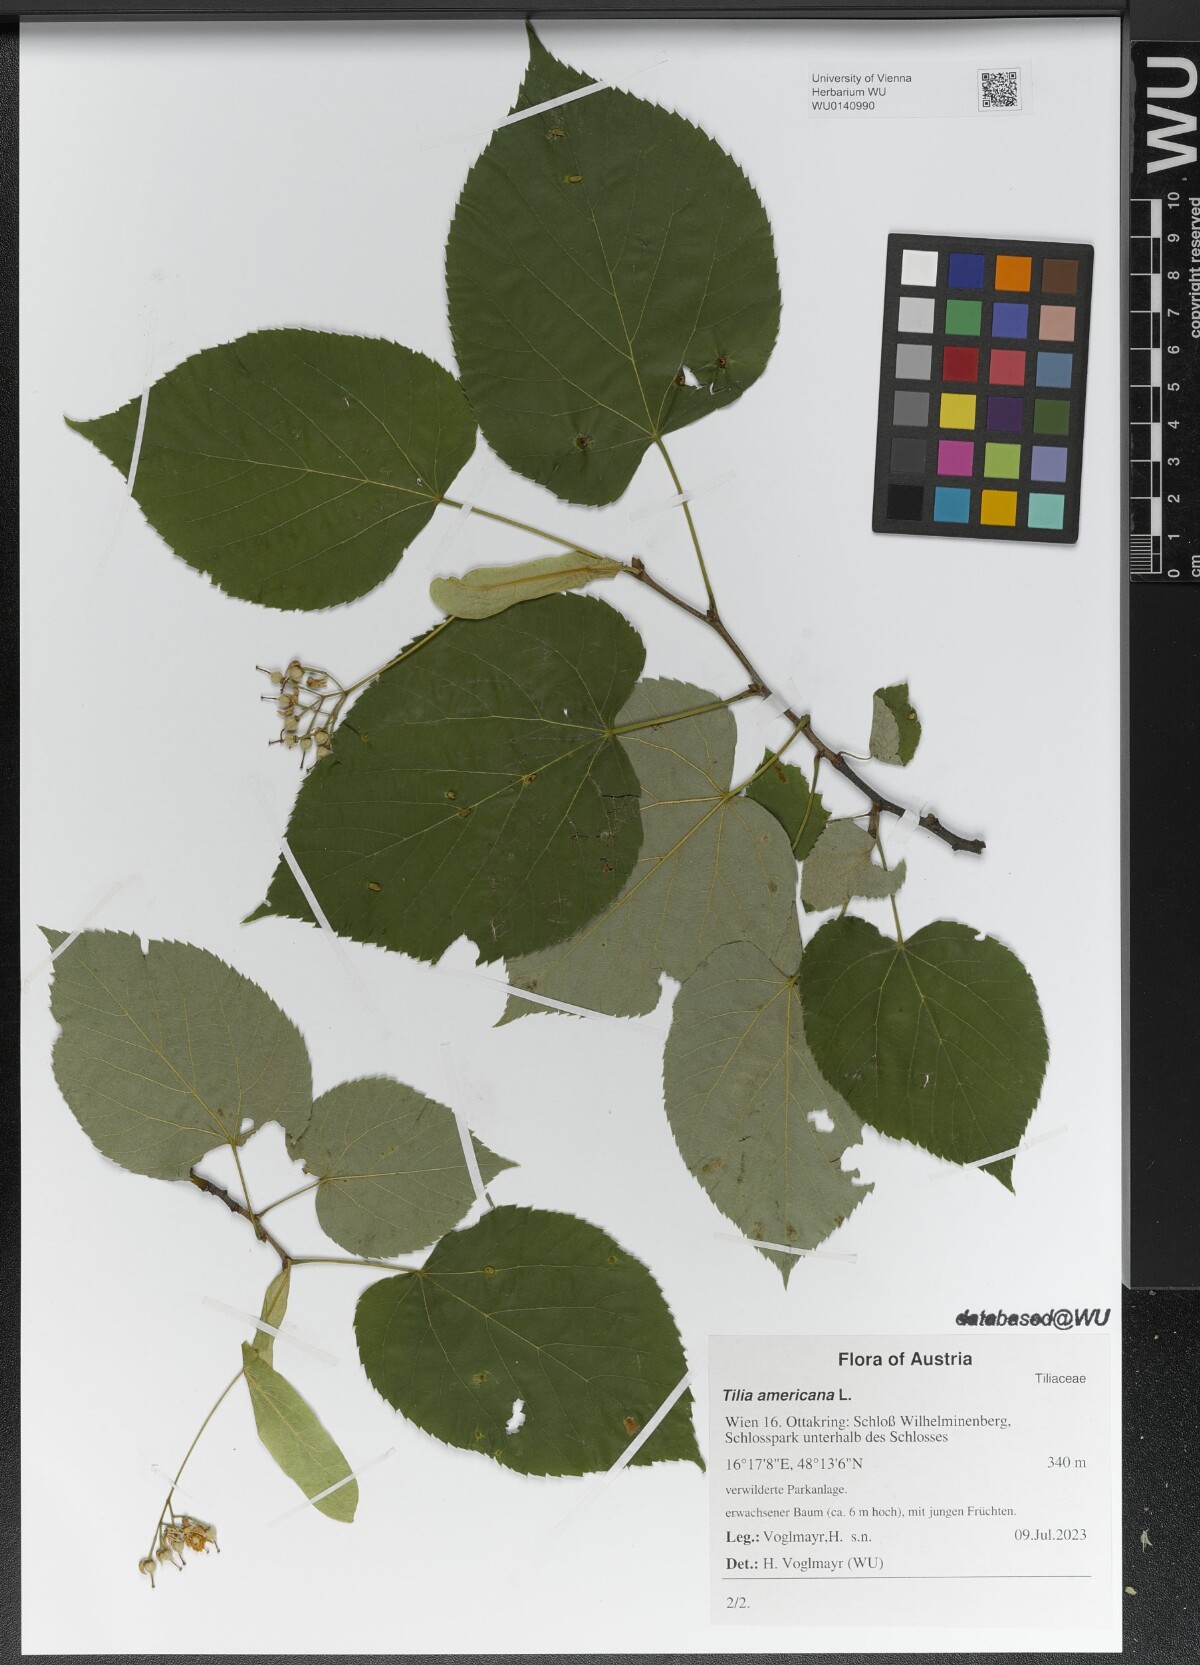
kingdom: Plantae
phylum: Tracheophyta
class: Magnoliopsida
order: Malvales
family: Malvaceae
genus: Tilia
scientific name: Tilia americana
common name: Basswood
